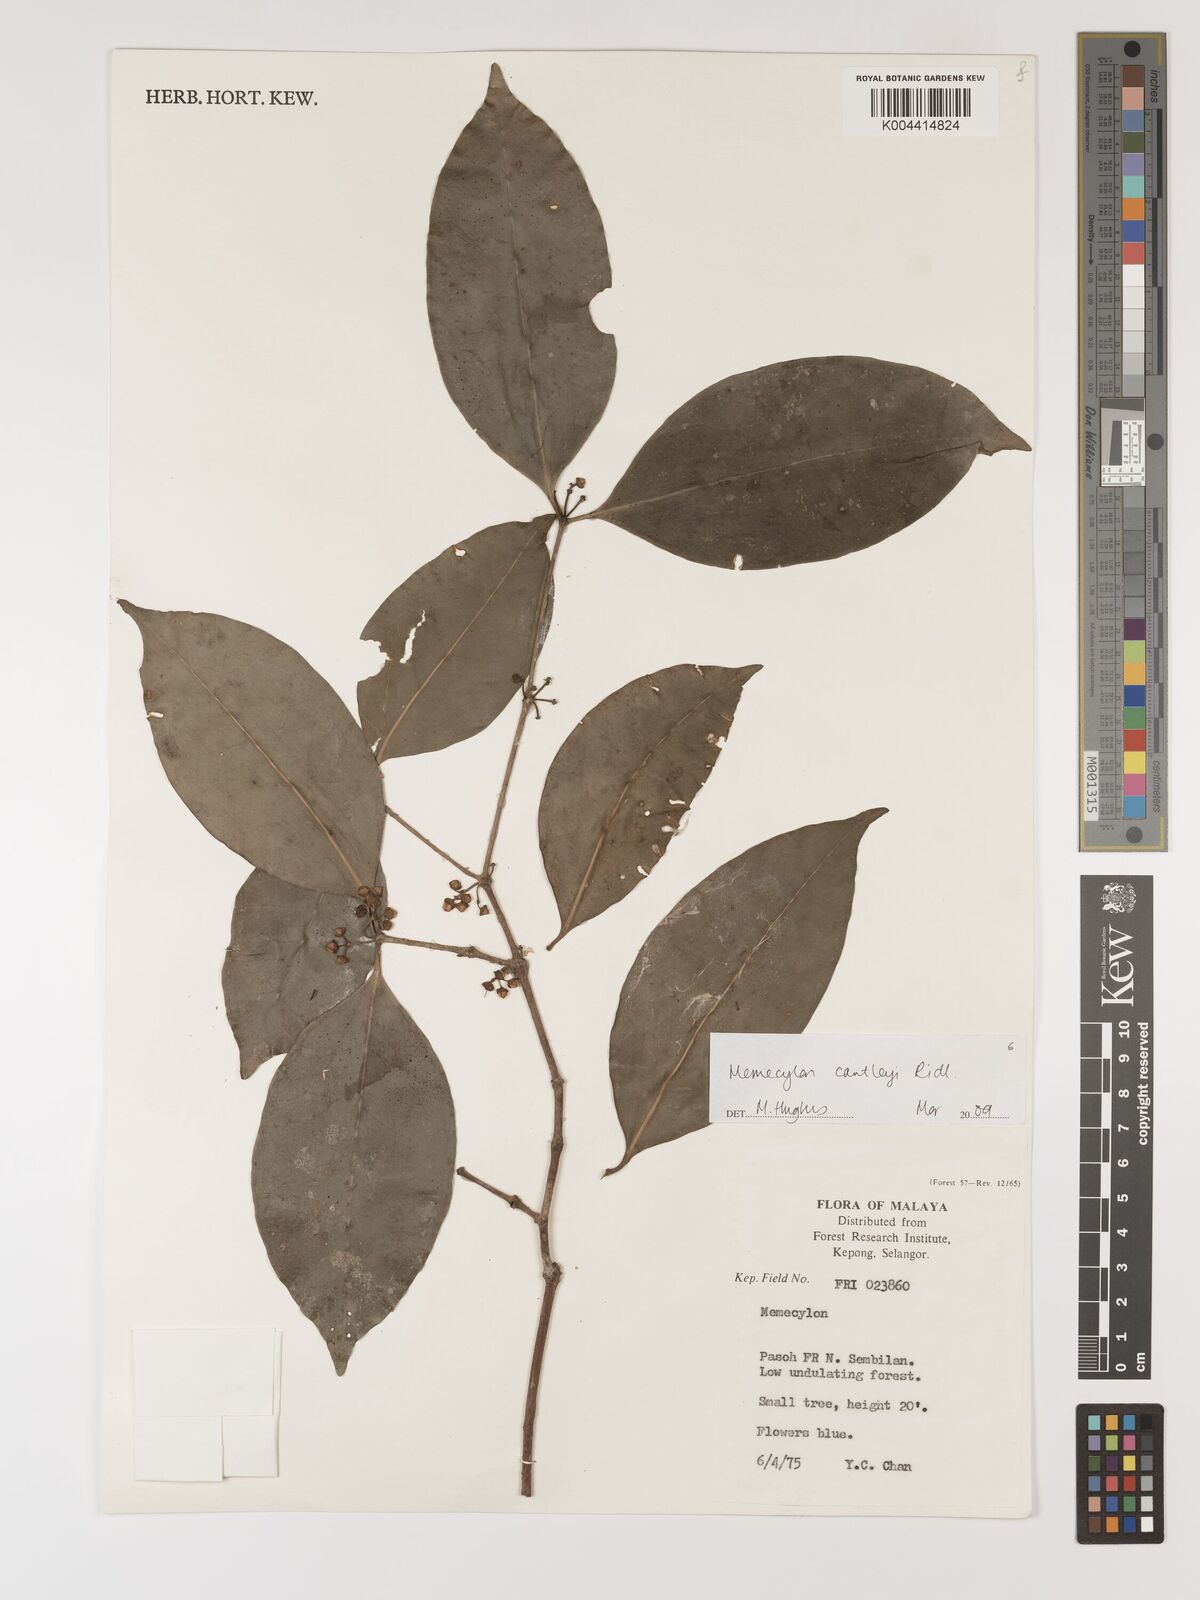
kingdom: Plantae
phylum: Tracheophyta
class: Magnoliopsida
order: Myrtales
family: Melastomataceae
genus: Memecylon
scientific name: Memecylon cantleyi
